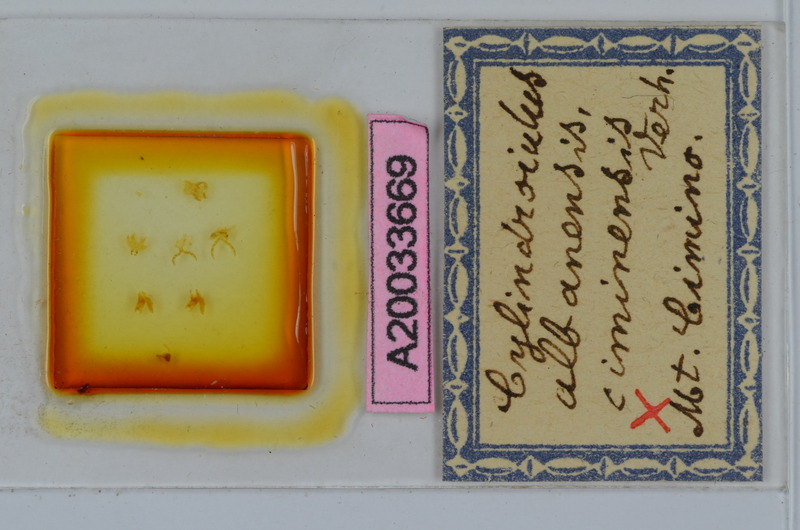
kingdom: Animalia
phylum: Arthropoda
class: Diplopoda
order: Julida
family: Julidae
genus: Cylindroiulus
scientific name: Cylindroiulus albanensis
